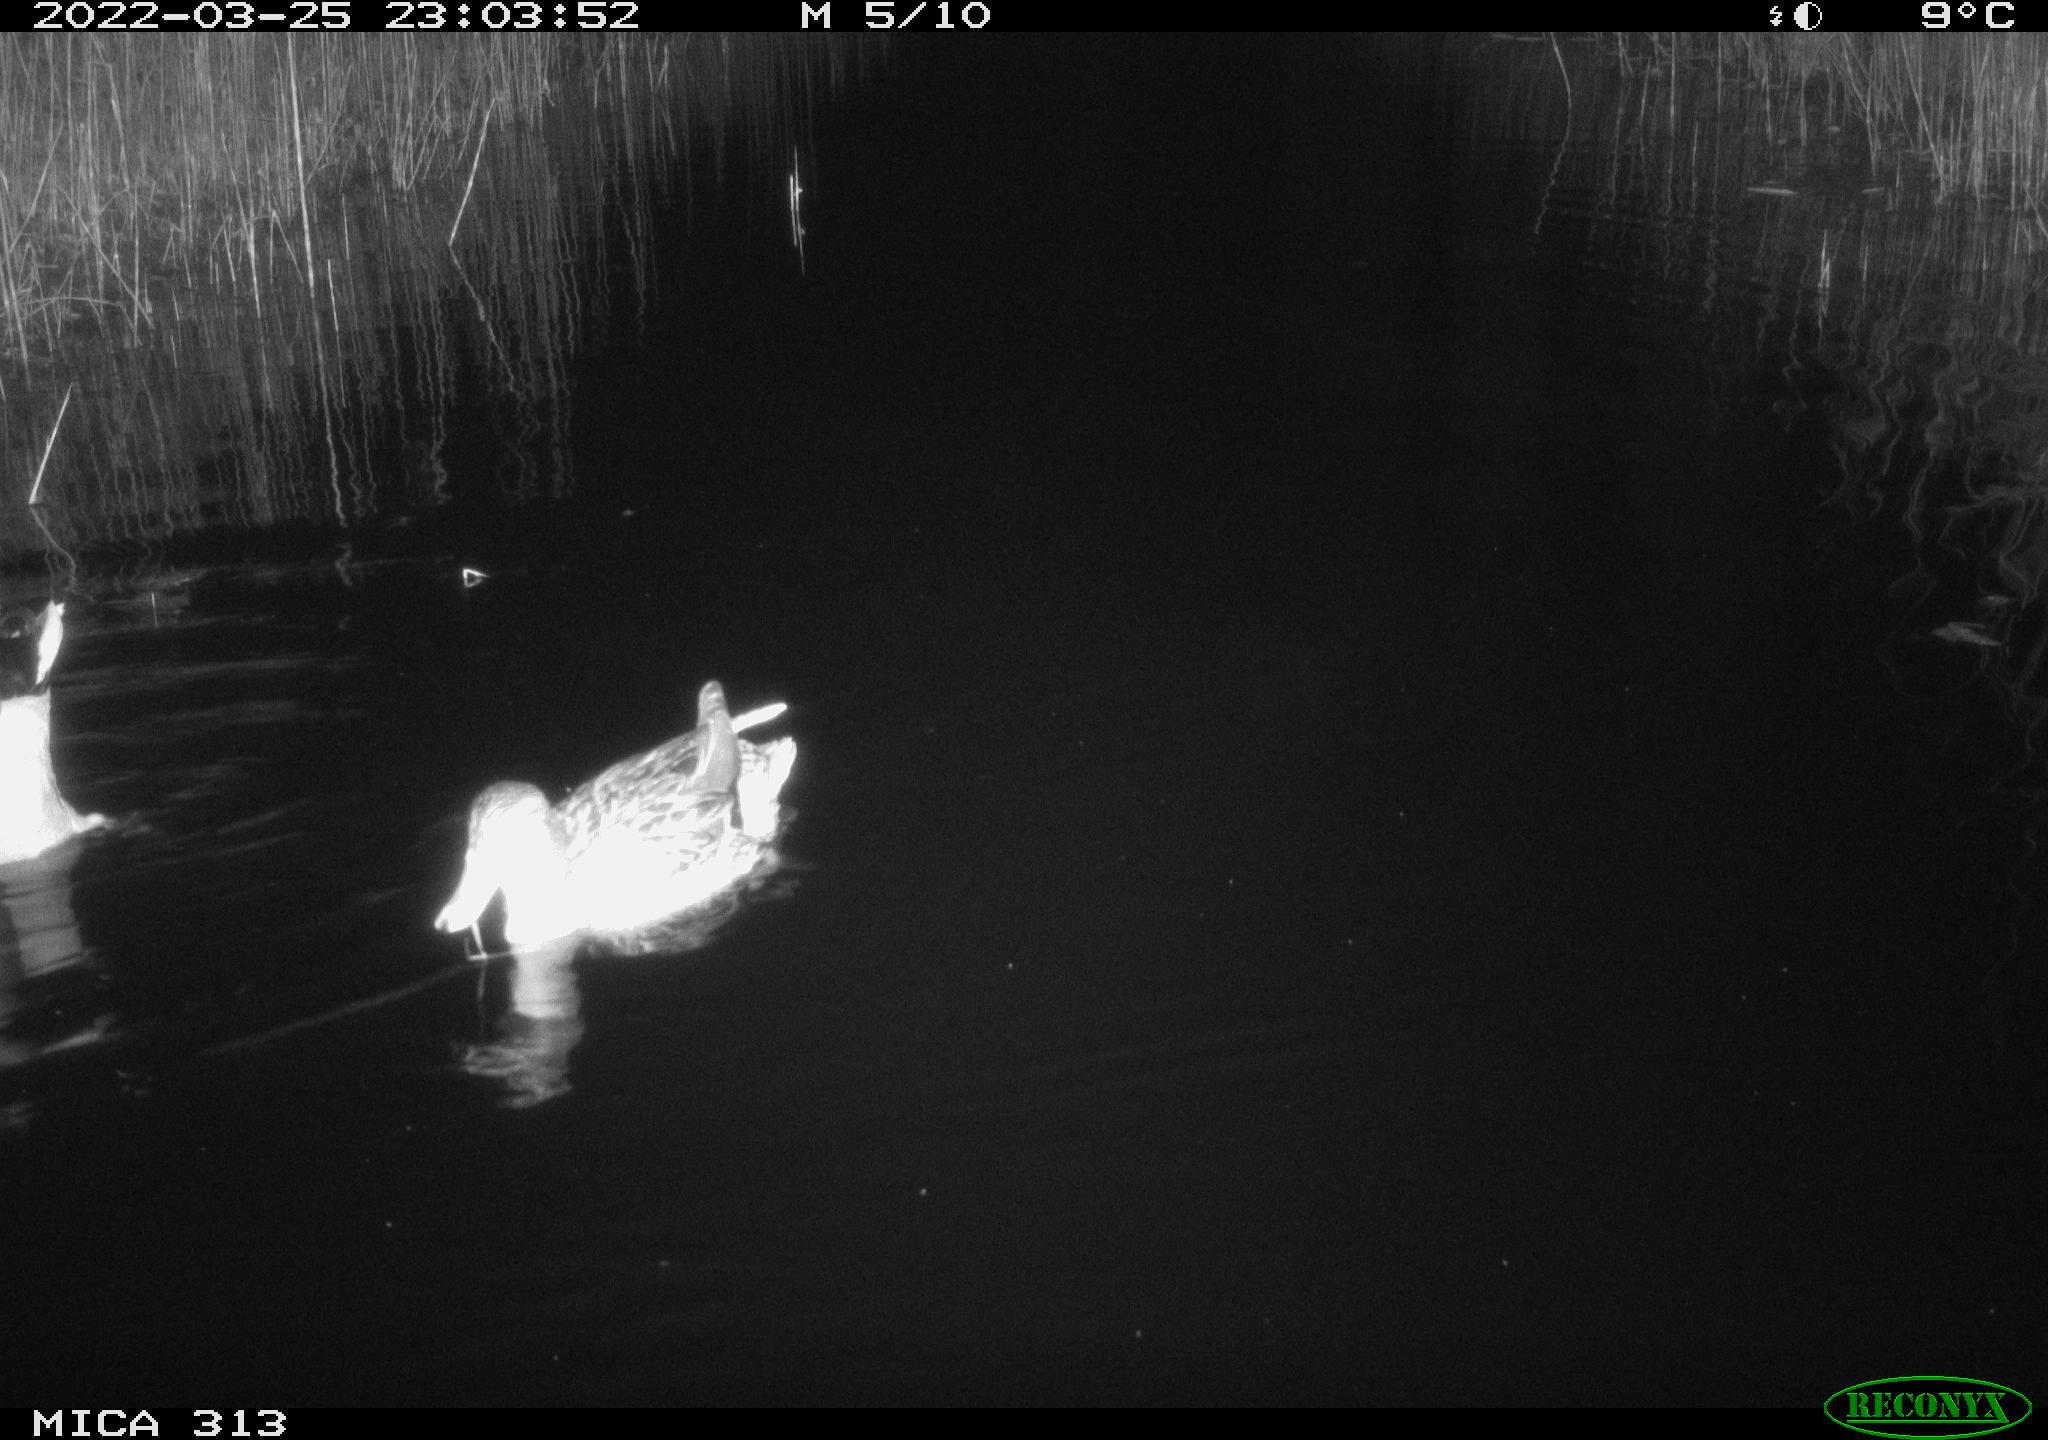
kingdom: Animalia
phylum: Chordata
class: Aves
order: Anseriformes
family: Anatidae
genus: Anas
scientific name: Anas platyrhynchos
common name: Mallard
